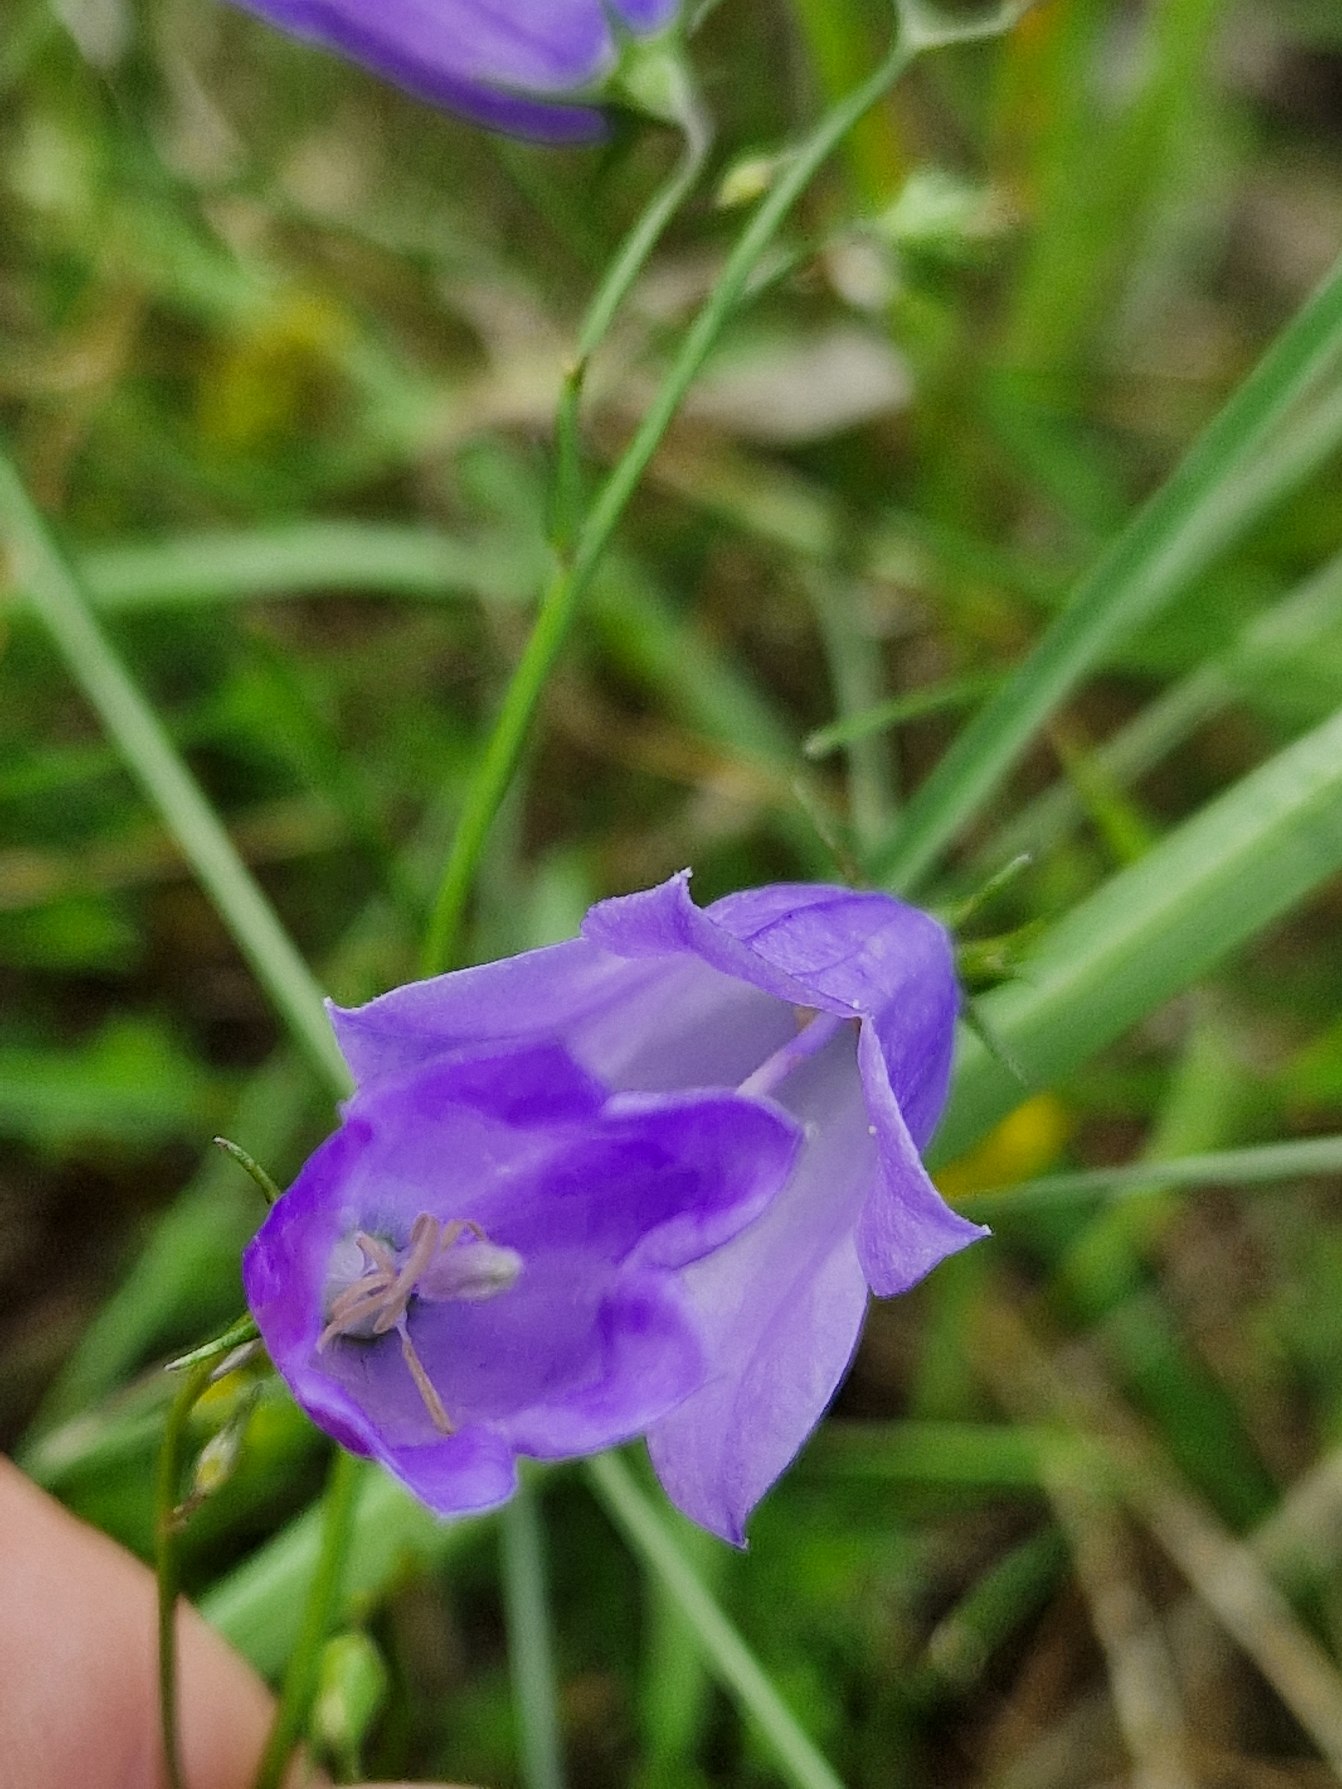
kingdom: Plantae
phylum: Tracheophyta
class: Magnoliopsida
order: Asterales
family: Campanulaceae
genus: Campanula
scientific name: Campanula rotundifolia
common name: Liden klokke
